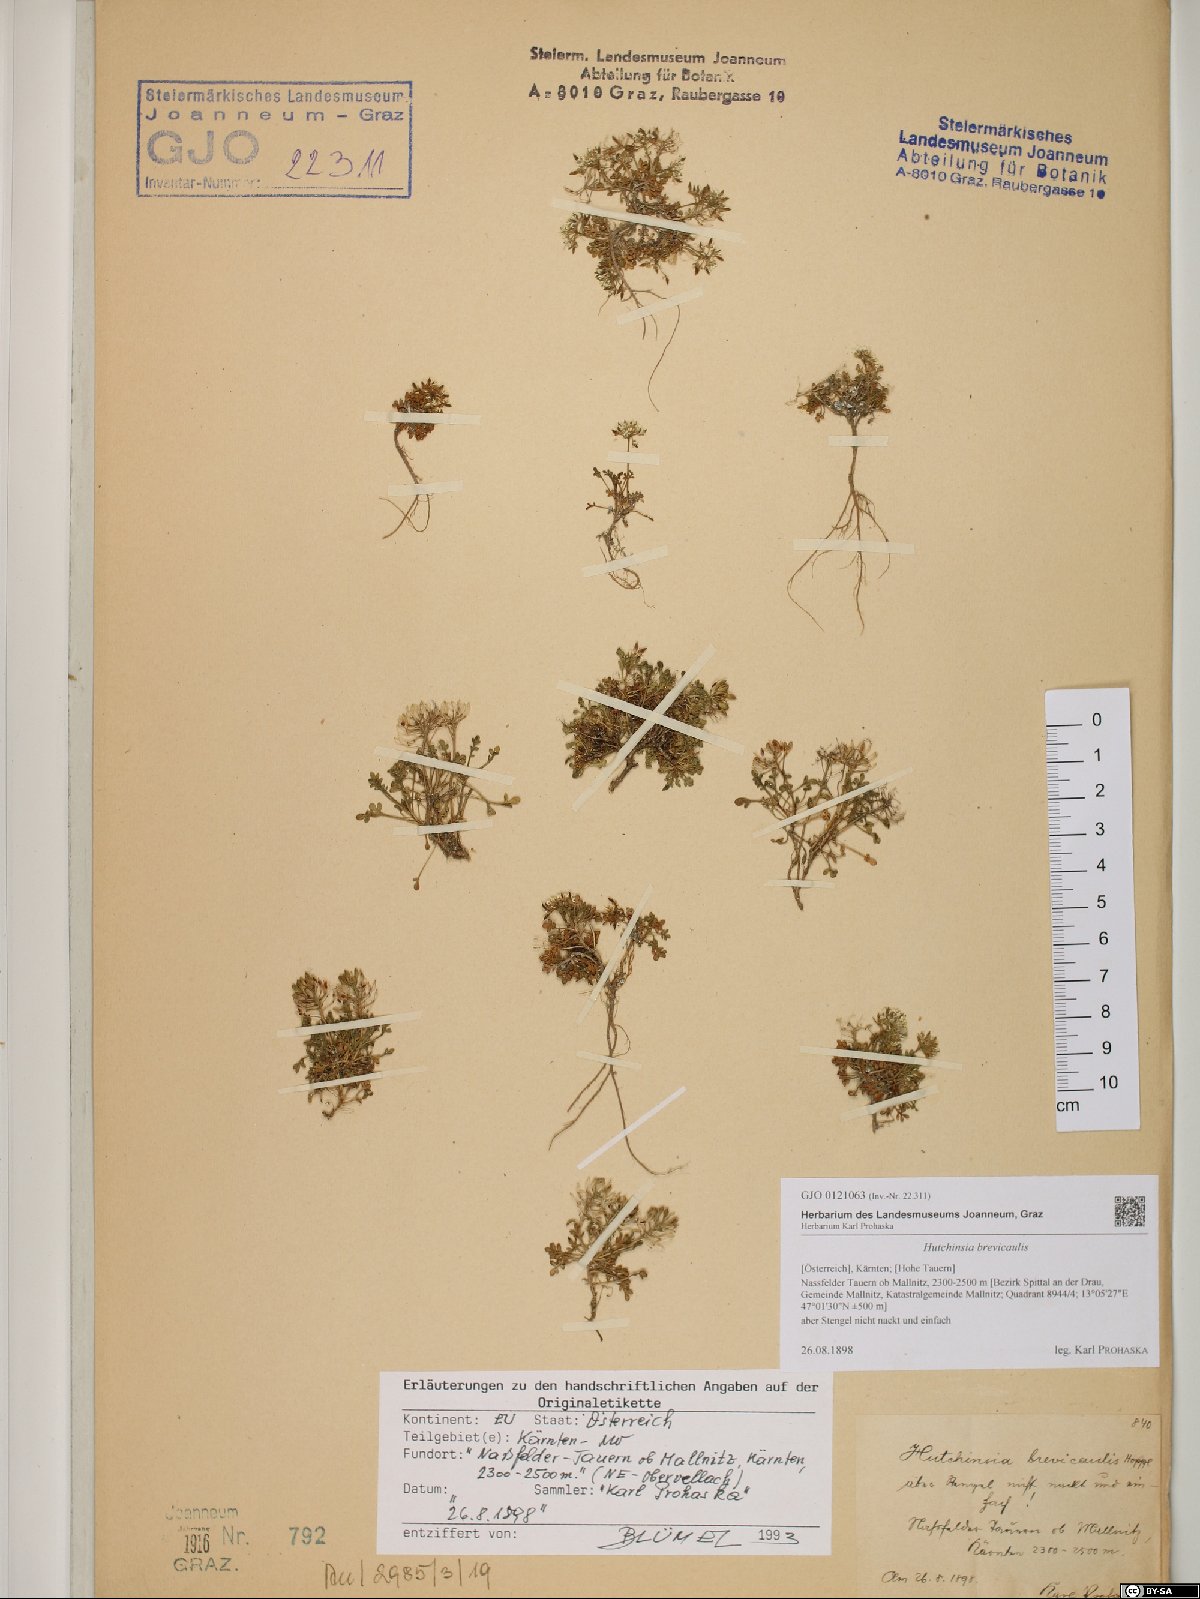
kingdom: Plantae
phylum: Tracheophyta
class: Magnoliopsida
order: Brassicales
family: Brassicaceae
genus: Hornungia
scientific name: Hornungia alpina
